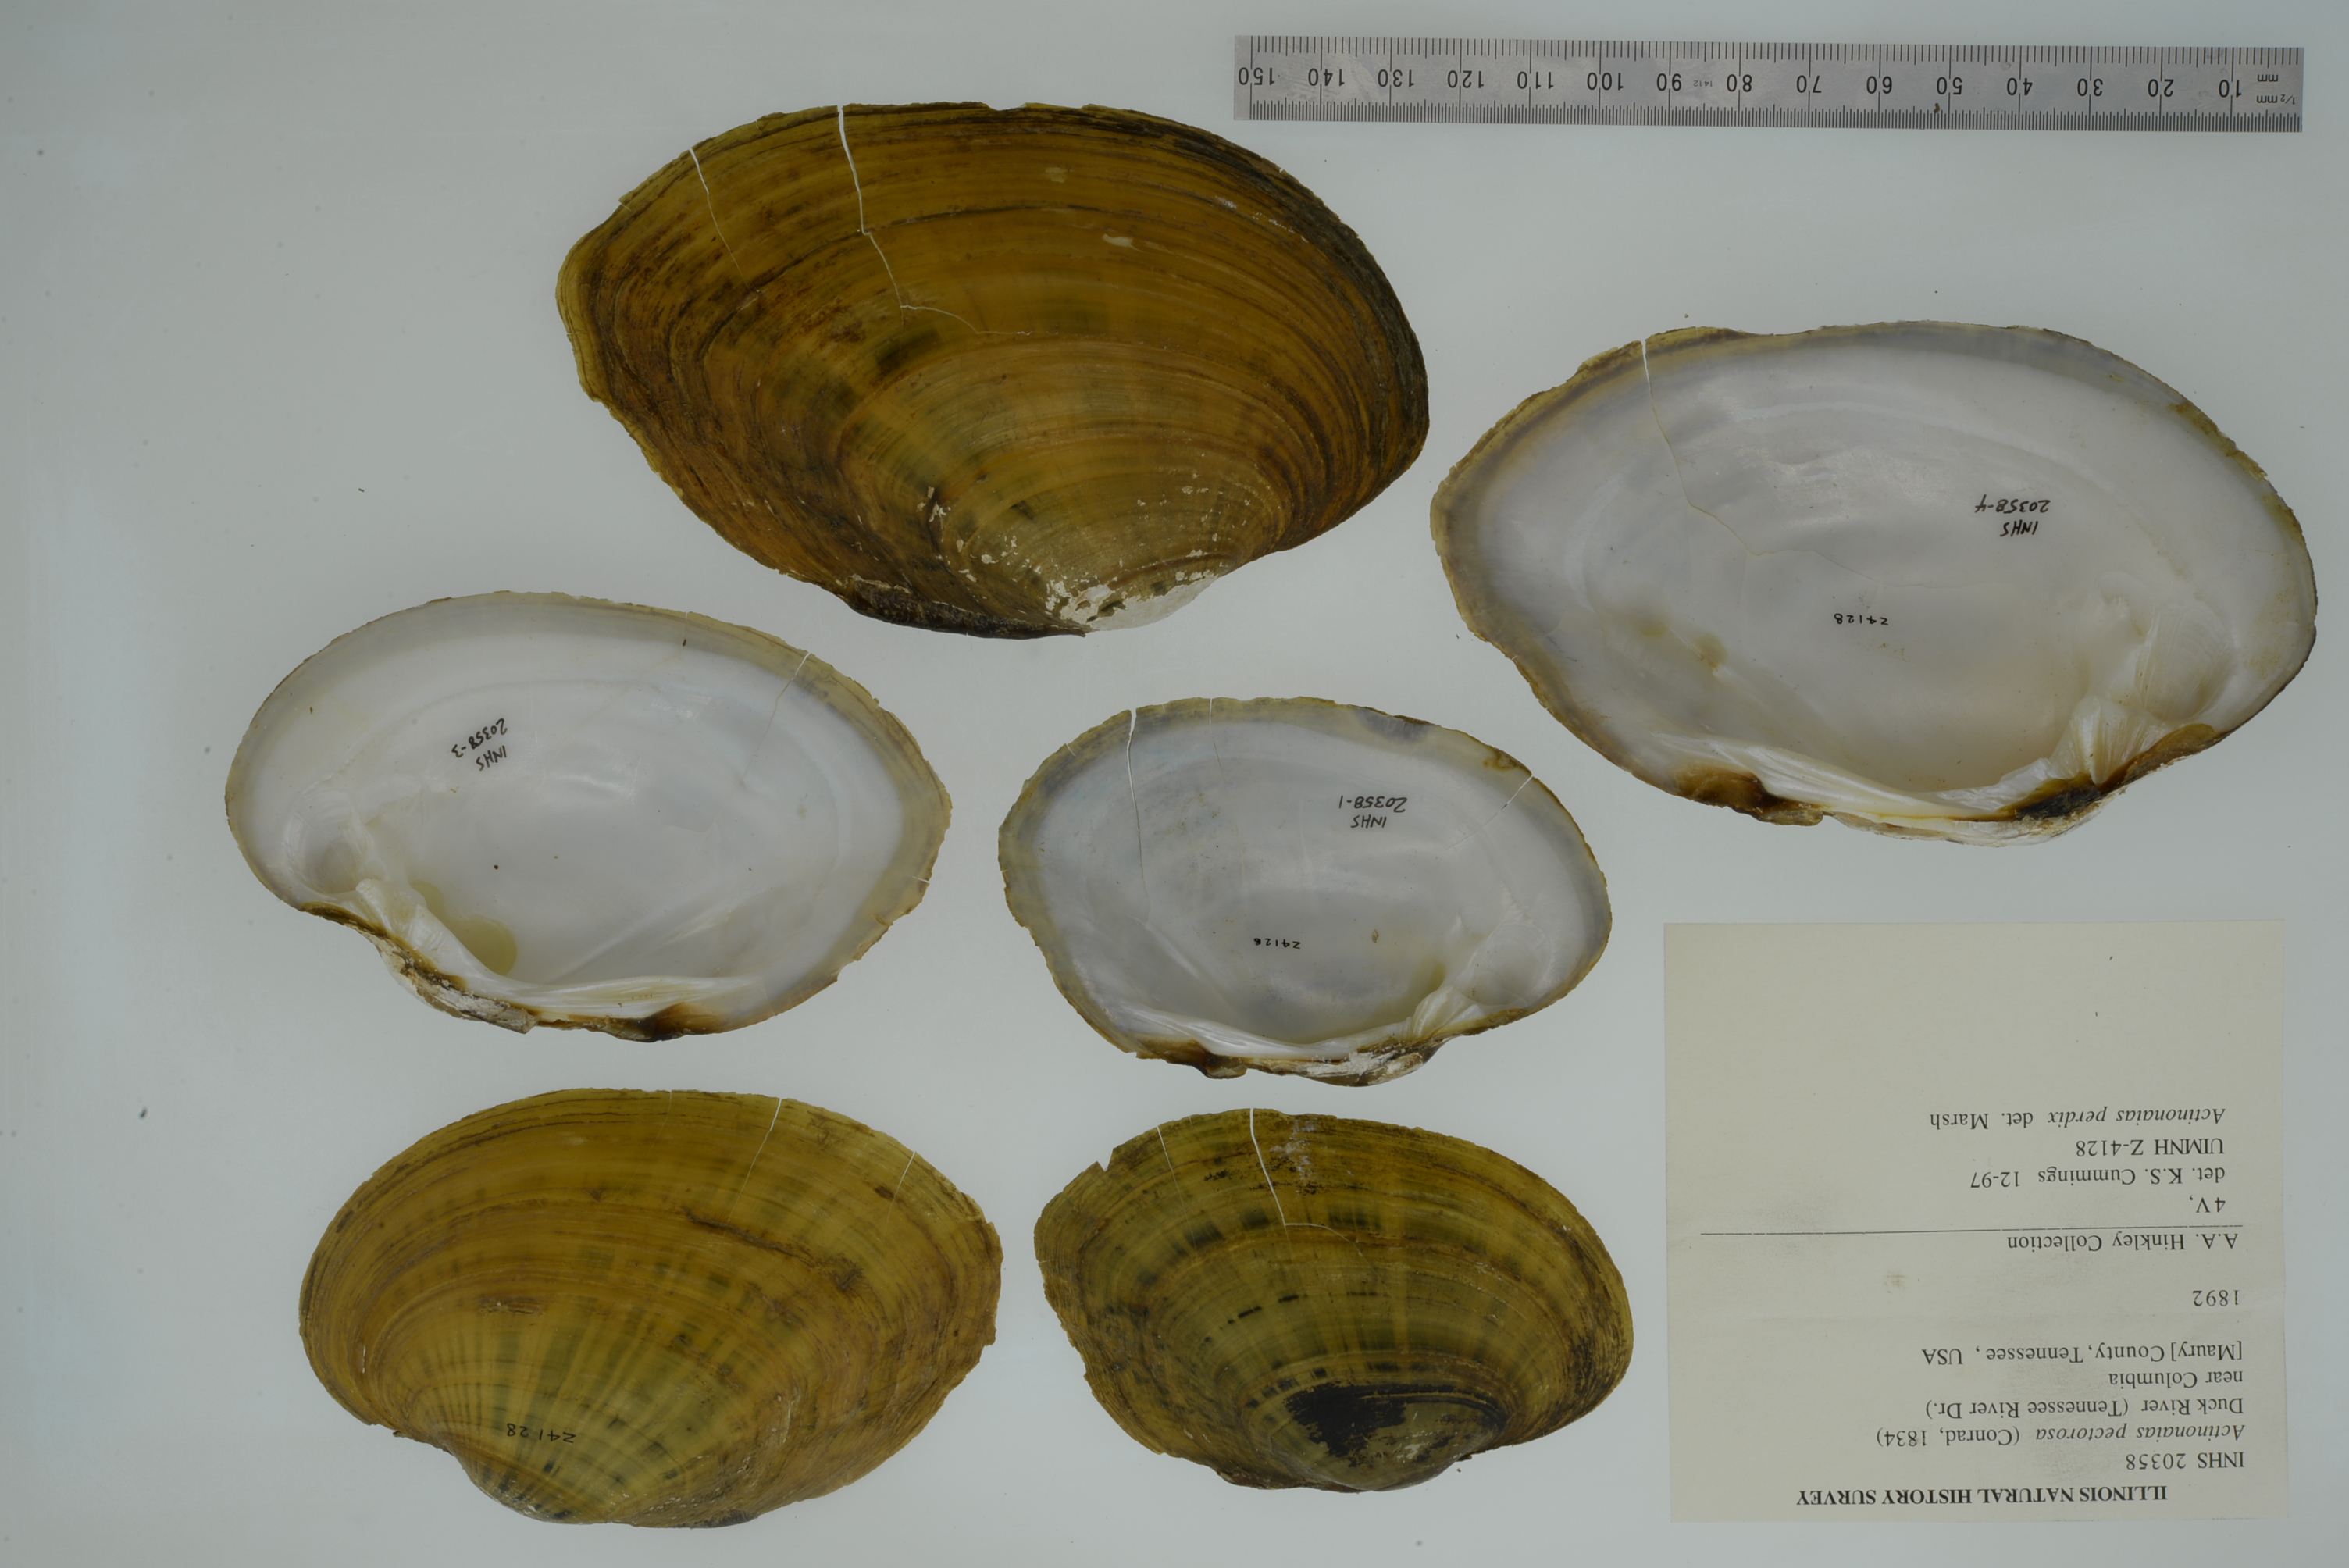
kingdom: Animalia
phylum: Mollusca
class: Bivalvia
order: Unionida
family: Unionidae
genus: Ortmanniana
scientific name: Ortmanniana pectorosa
